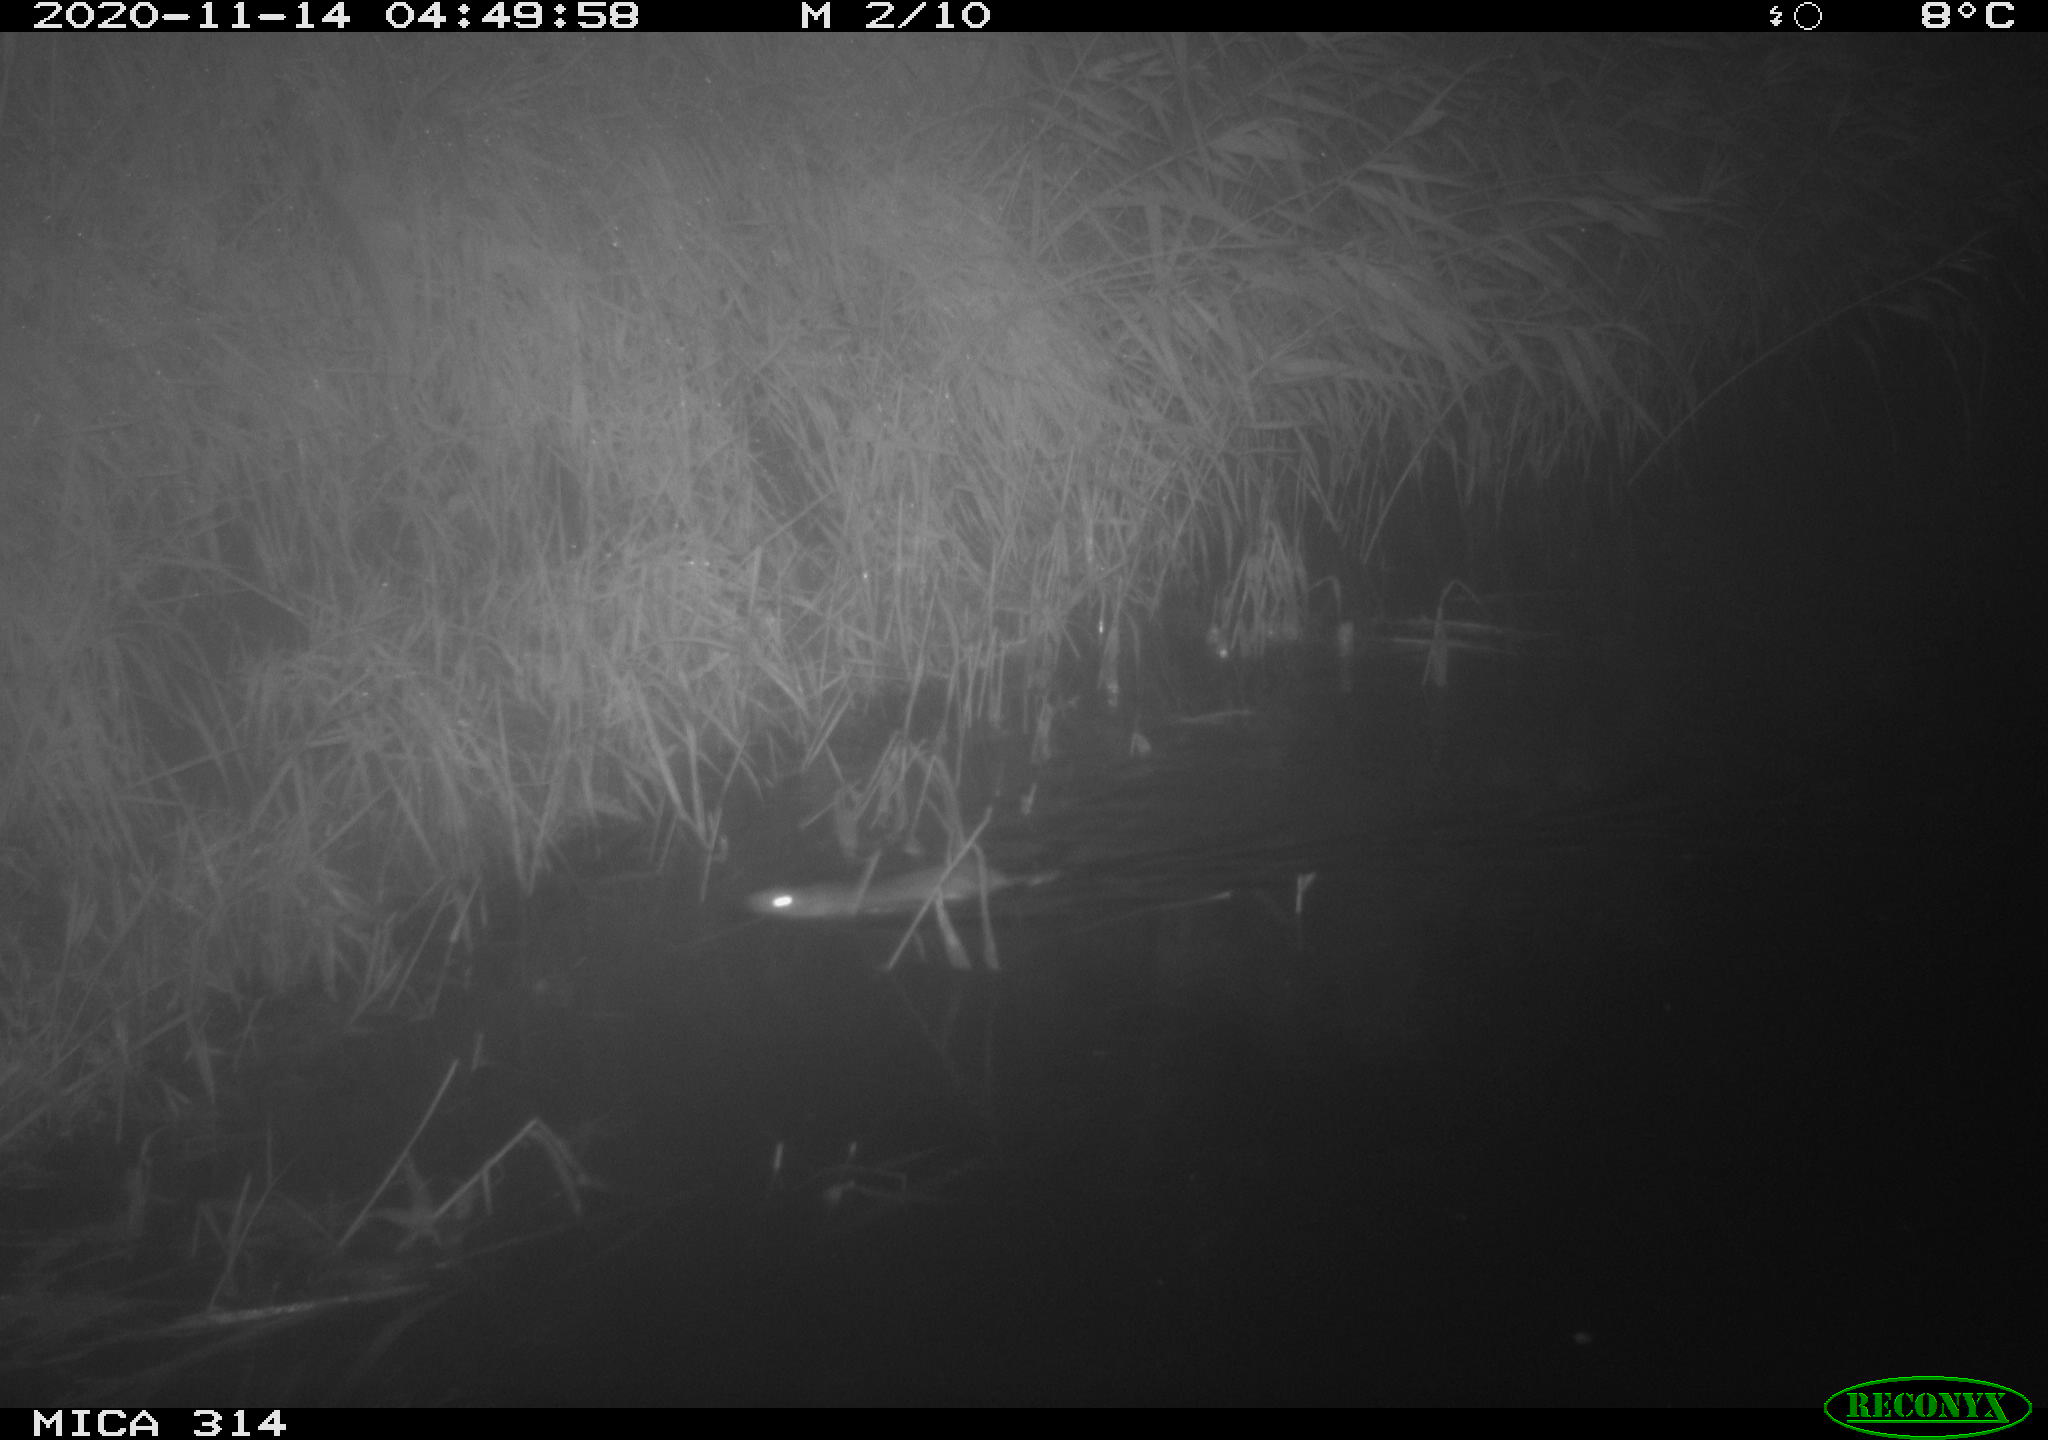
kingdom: Animalia
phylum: Chordata
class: Mammalia
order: Rodentia
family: Muridae
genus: Rattus
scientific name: Rattus norvegicus
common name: Brown rat
